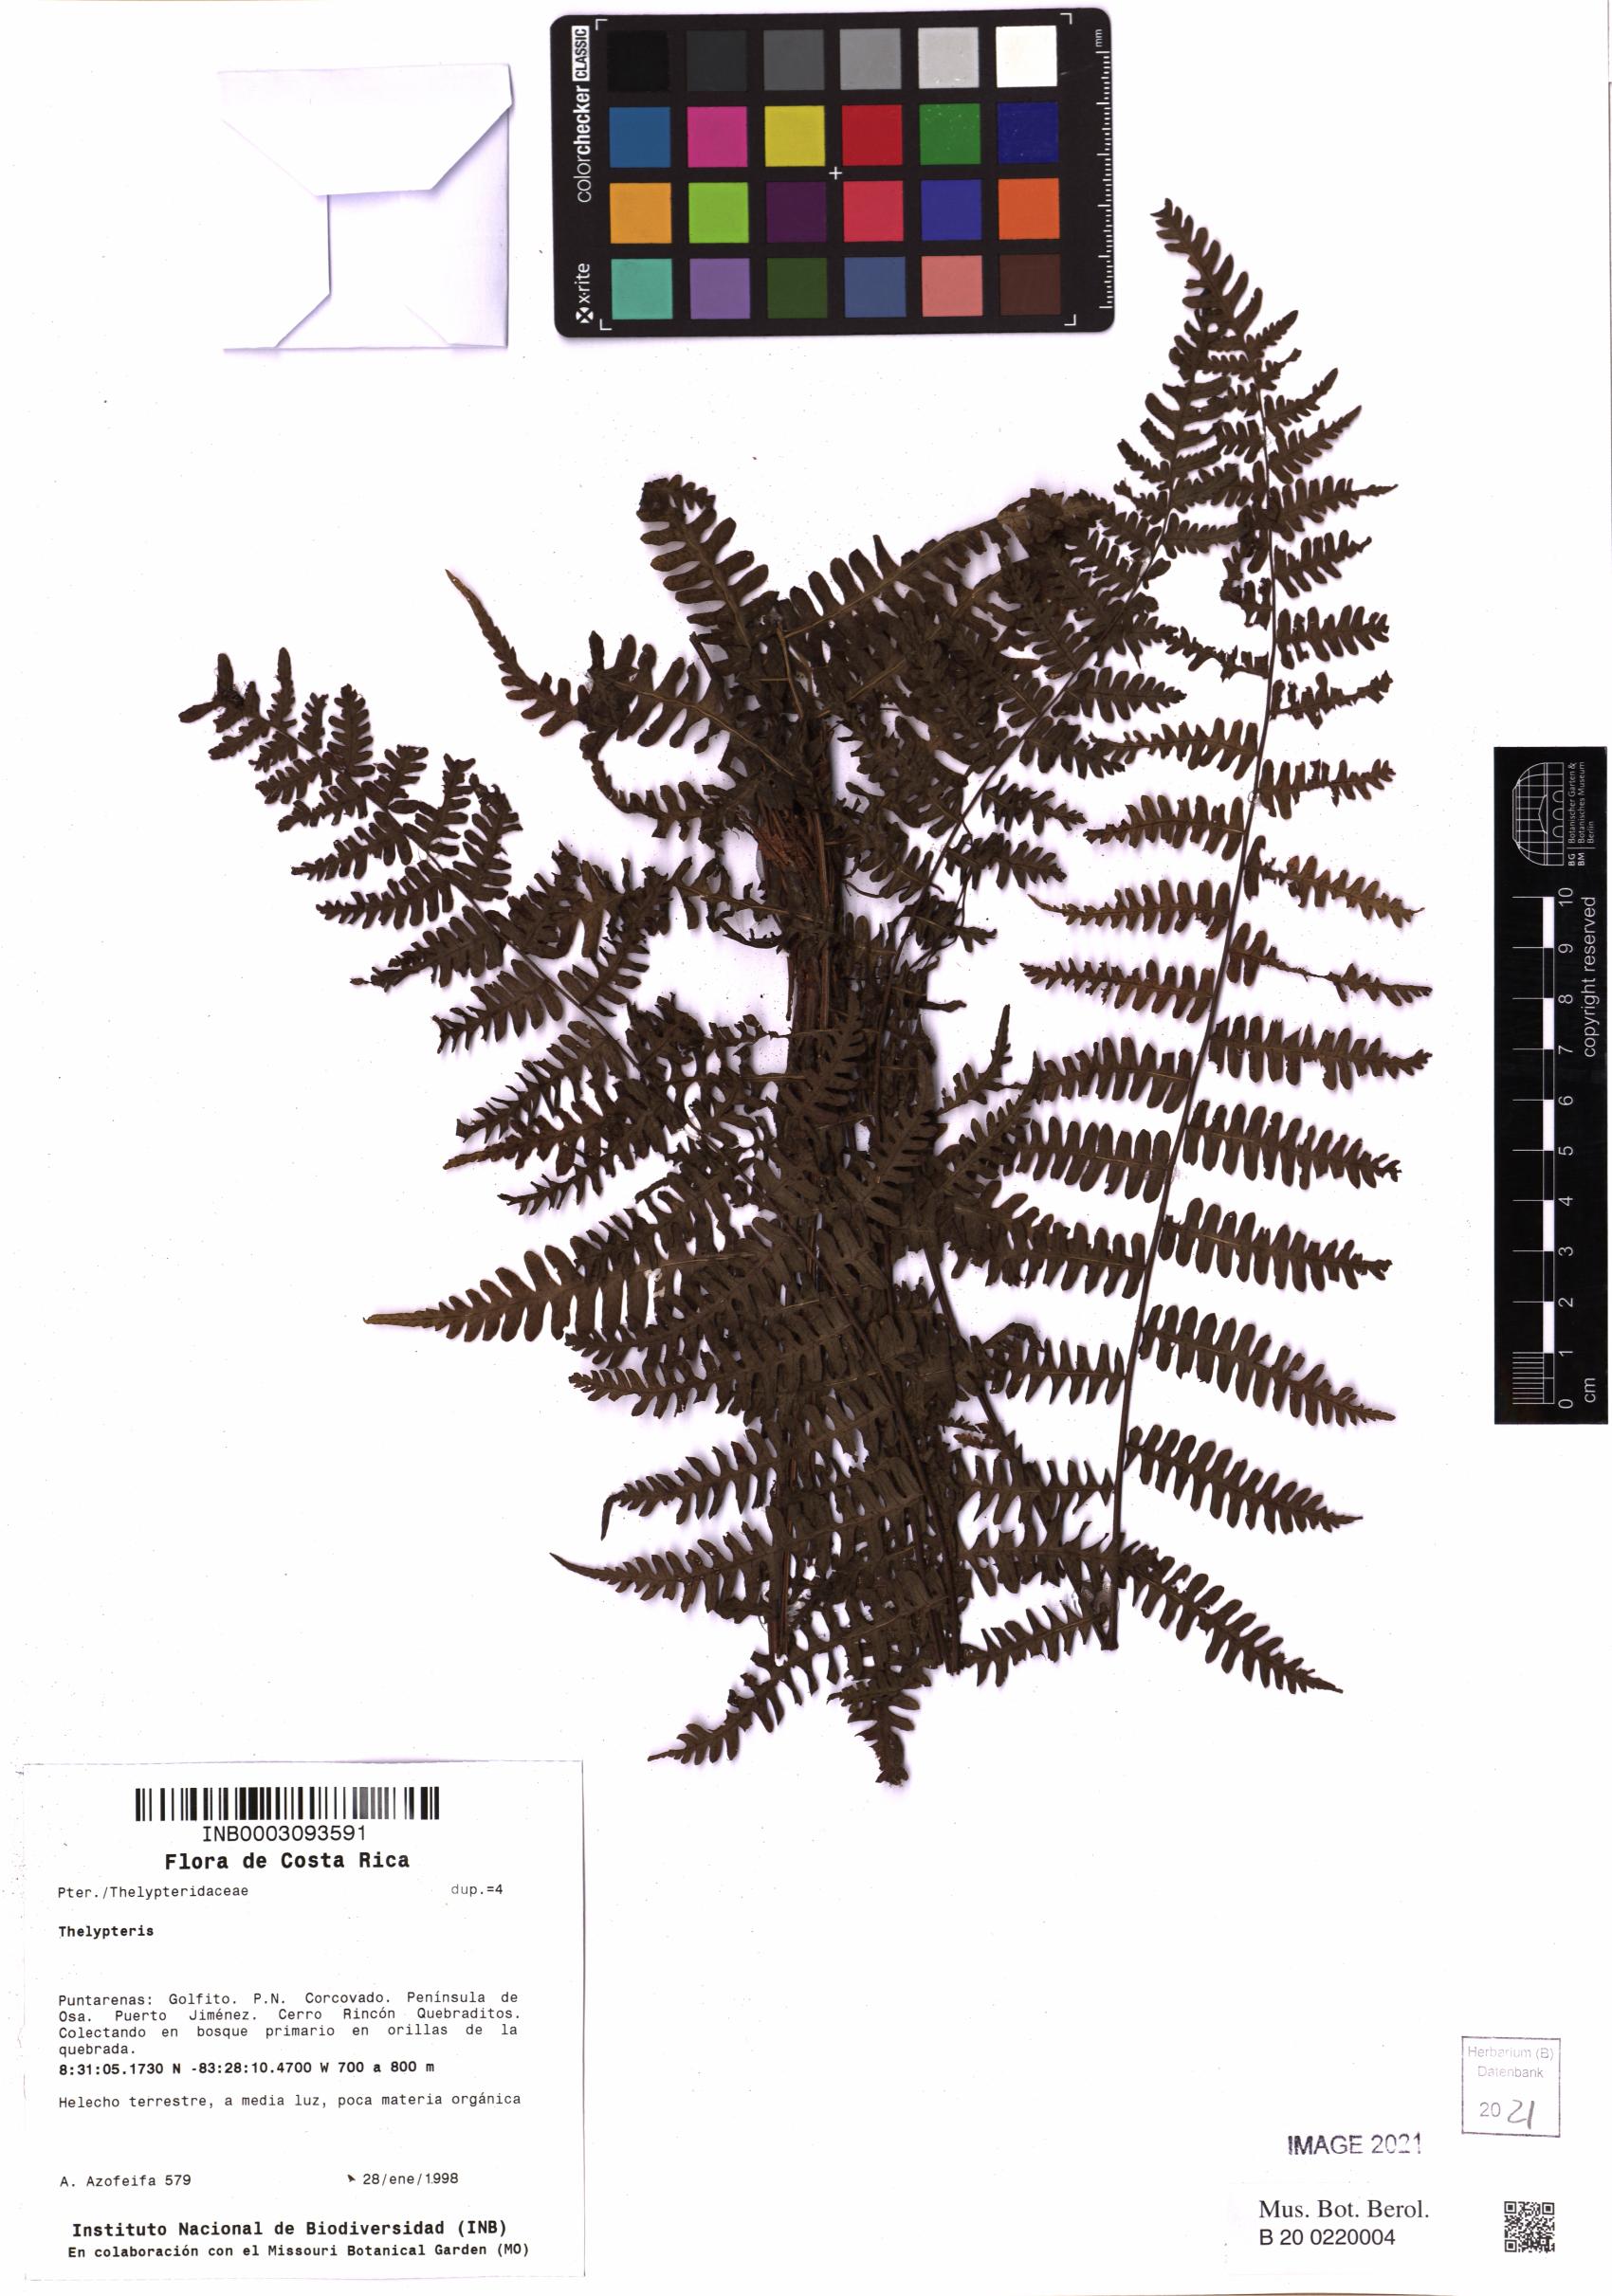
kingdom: Plantae
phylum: Tracheophyta
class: Polypodiopsida
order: Polypodiales
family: Thelypteridaceae
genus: Thelypteris
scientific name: Thelypteris
